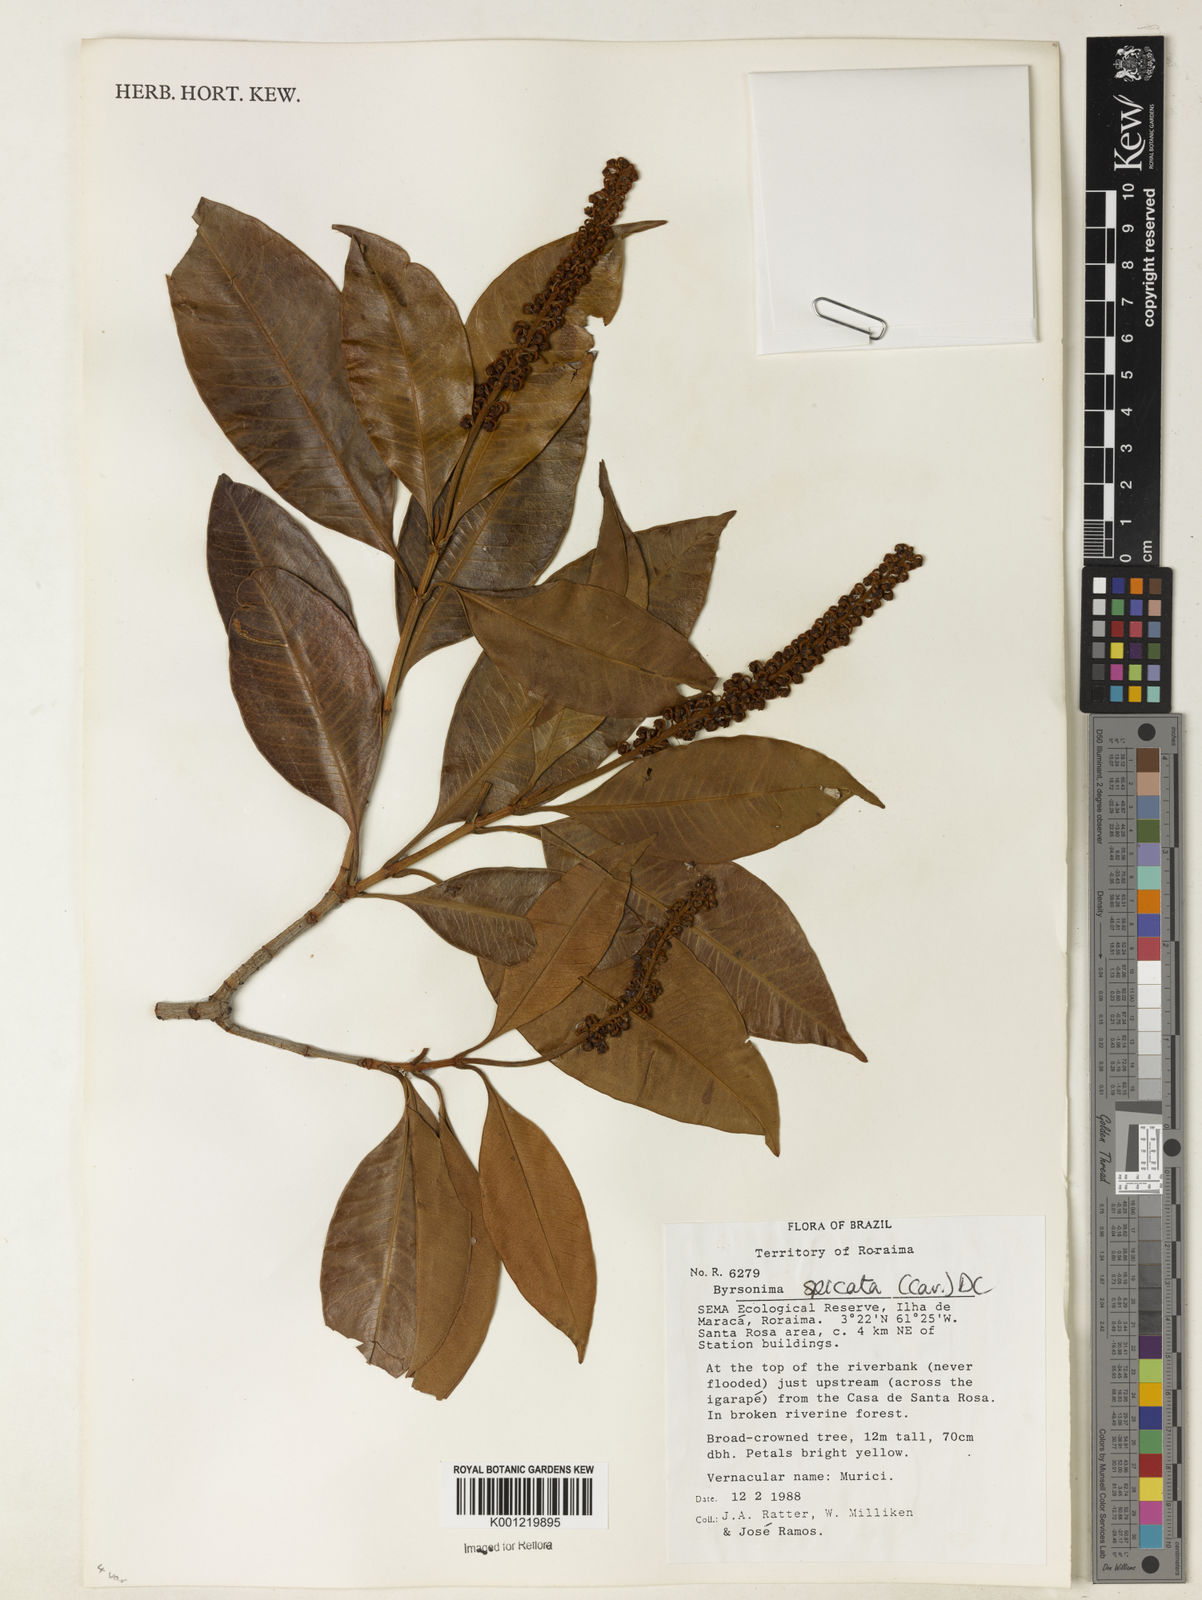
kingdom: Plantae
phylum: Tracheophyta
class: Magnoliopsida
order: Malpighiales
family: Malpighiaceae
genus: Byrsonima
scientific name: Byrsonima
